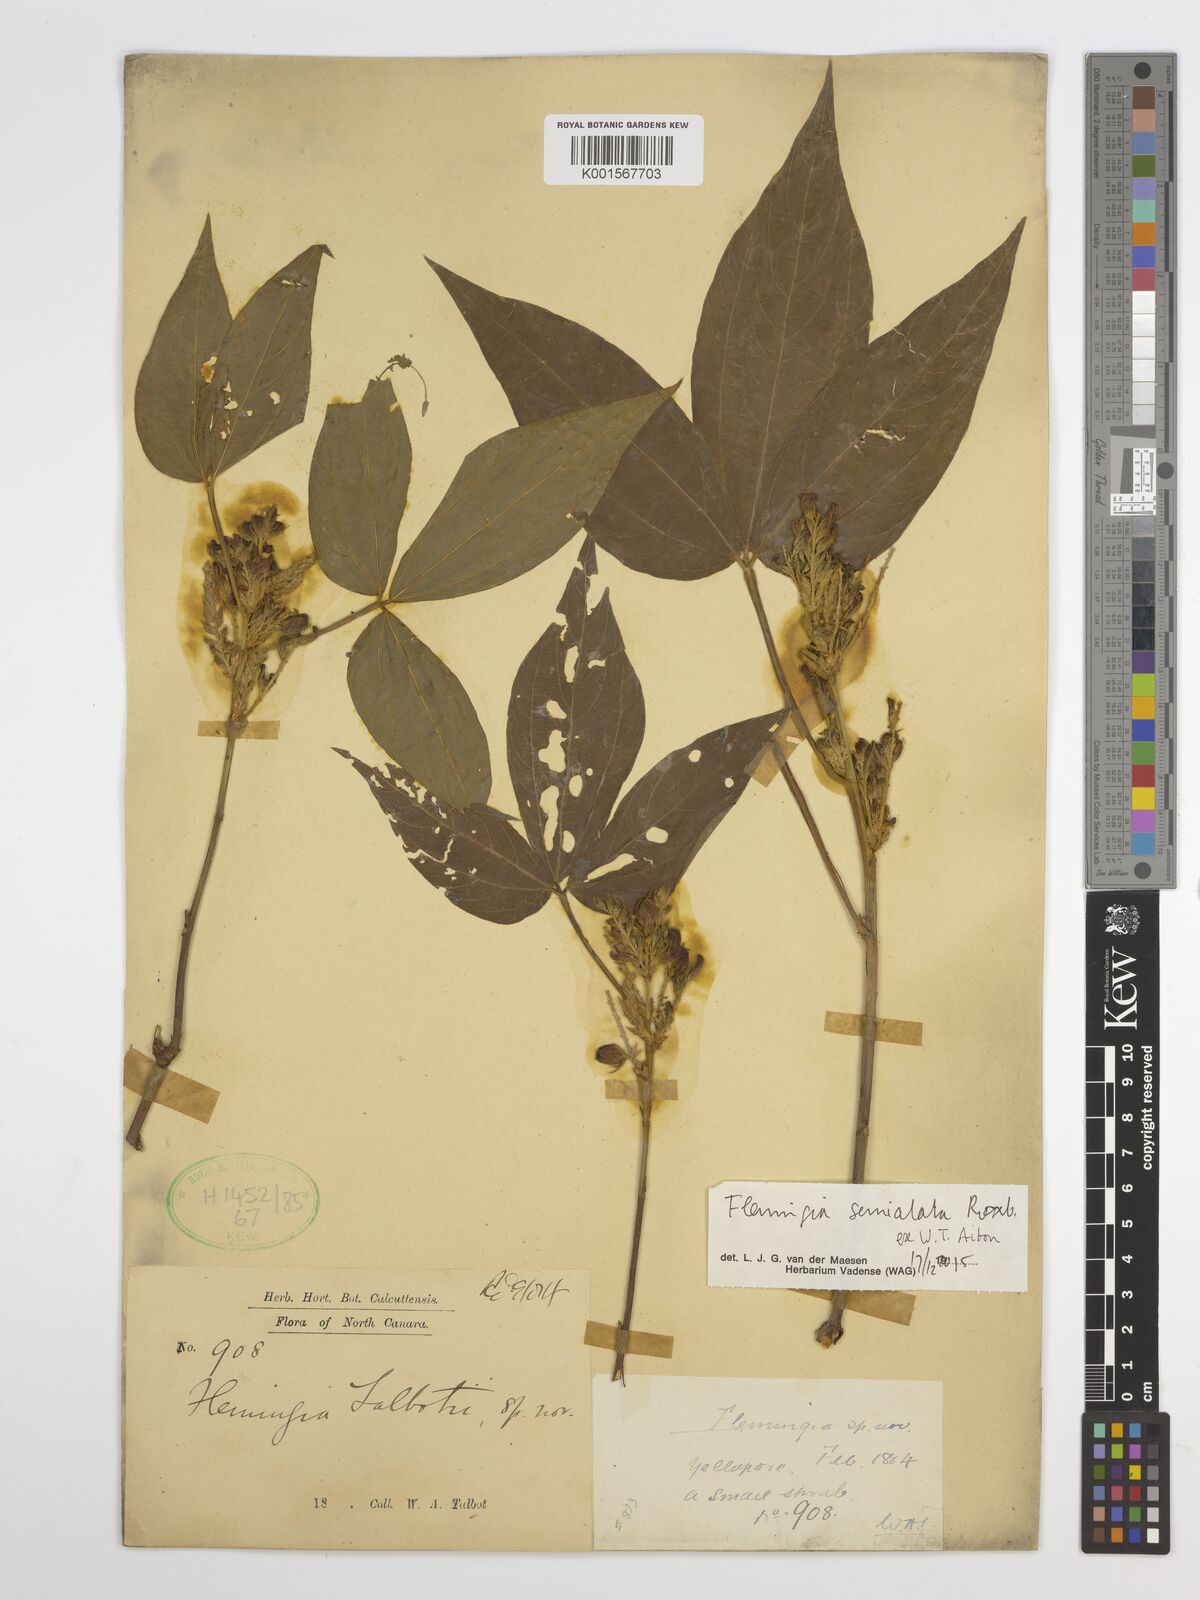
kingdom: Plantae
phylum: Tracheophyta
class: Magnoliopsida
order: Fabales
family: Fabaceae
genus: Flemingia
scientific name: Flemingia semialata
